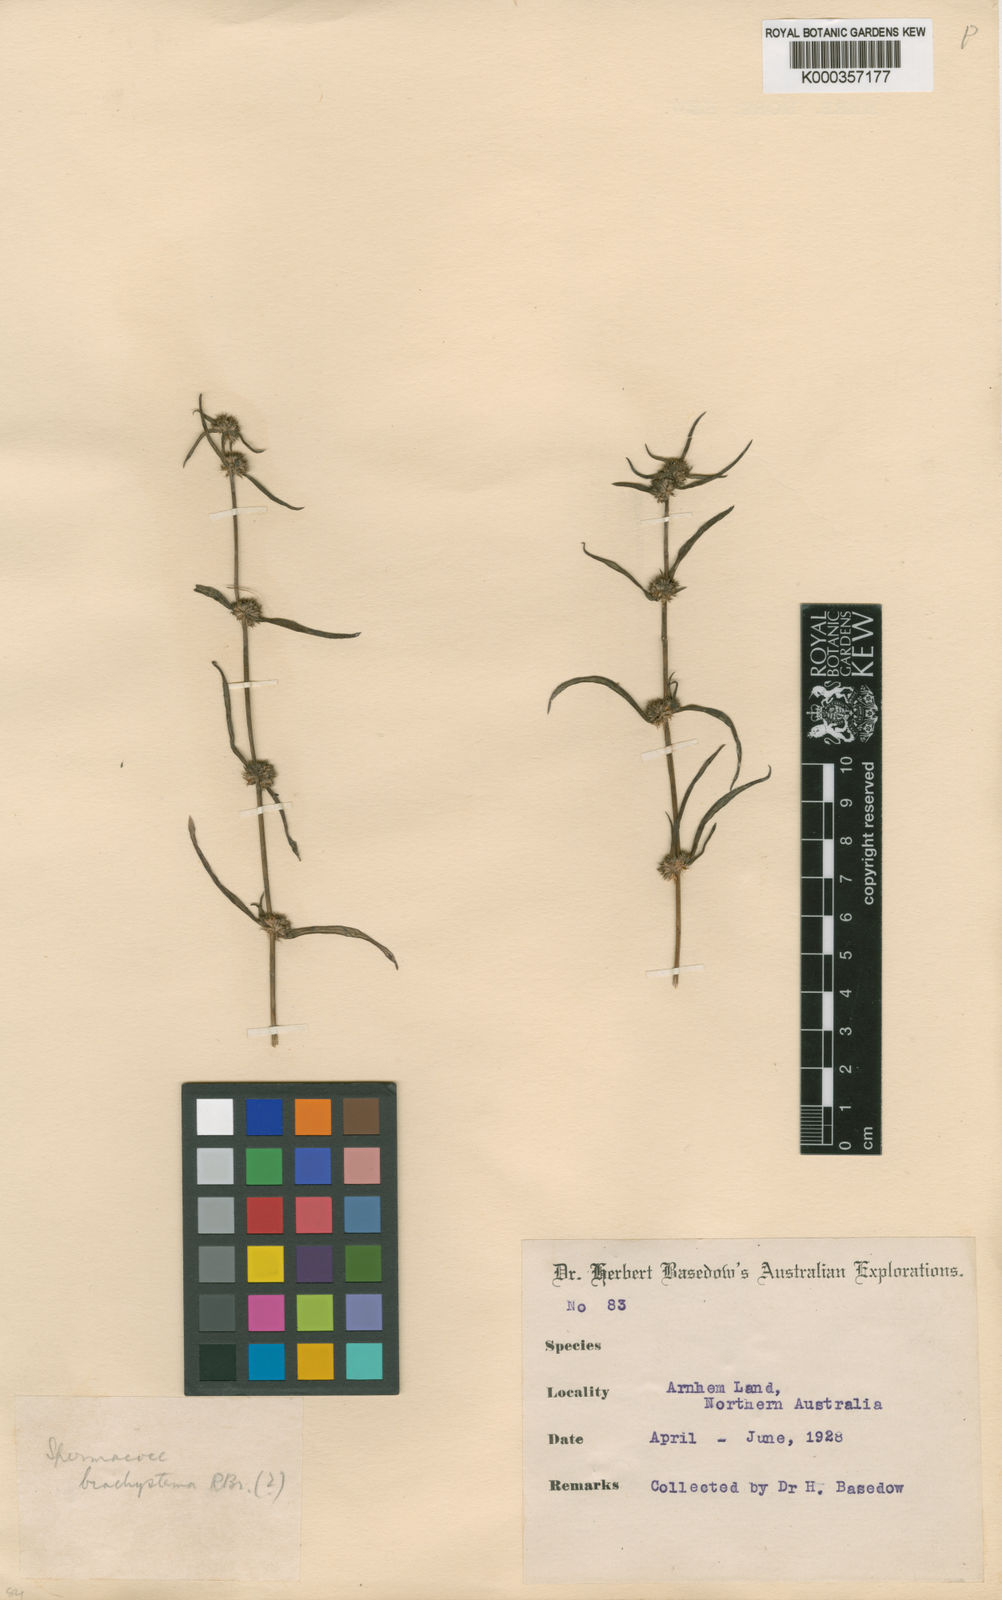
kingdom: Plantae
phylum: Tracheophyta
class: Magnoliopsida
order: Gentianales
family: Rubiaceae
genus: Spermacoce
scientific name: Spermacoce brachystema
